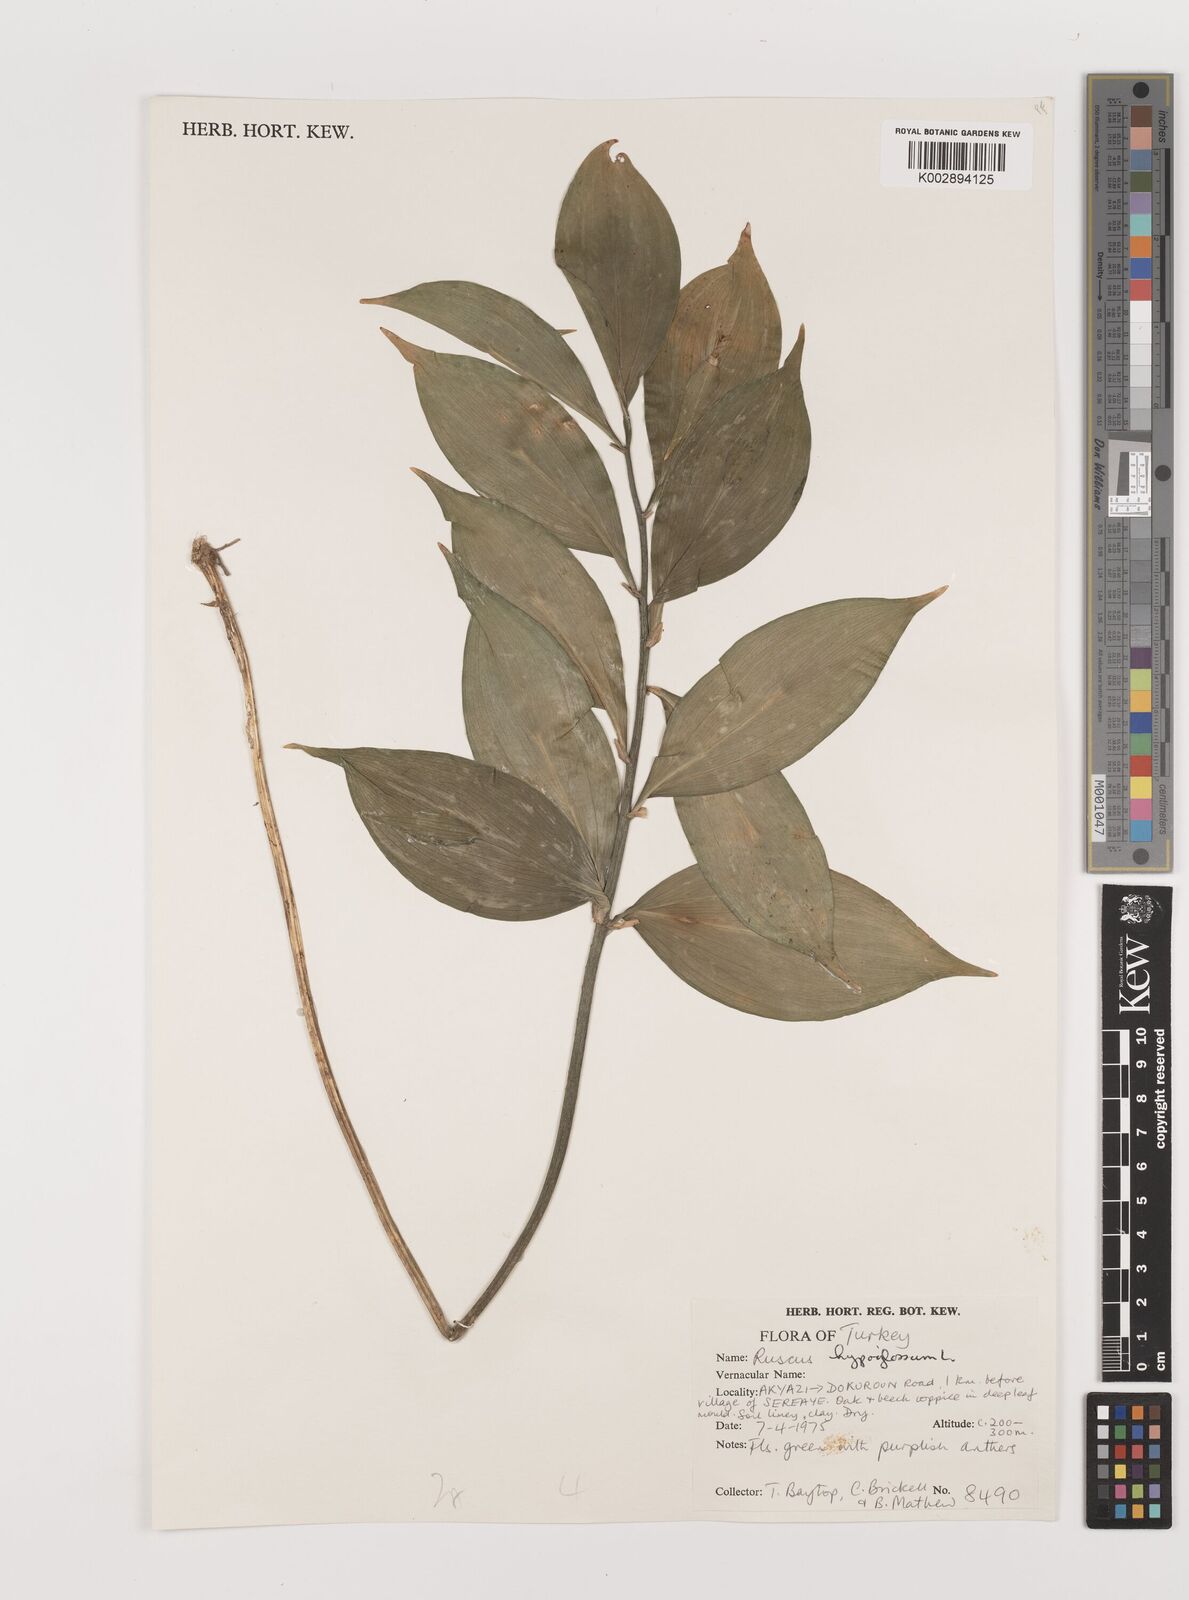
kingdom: Plantae
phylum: Tracheophyta
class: Liliopsida
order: Asparagales
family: Asparagaceae
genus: Ruscus
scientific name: Ruscus hypoglossum
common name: Spineless butcher's-broom
